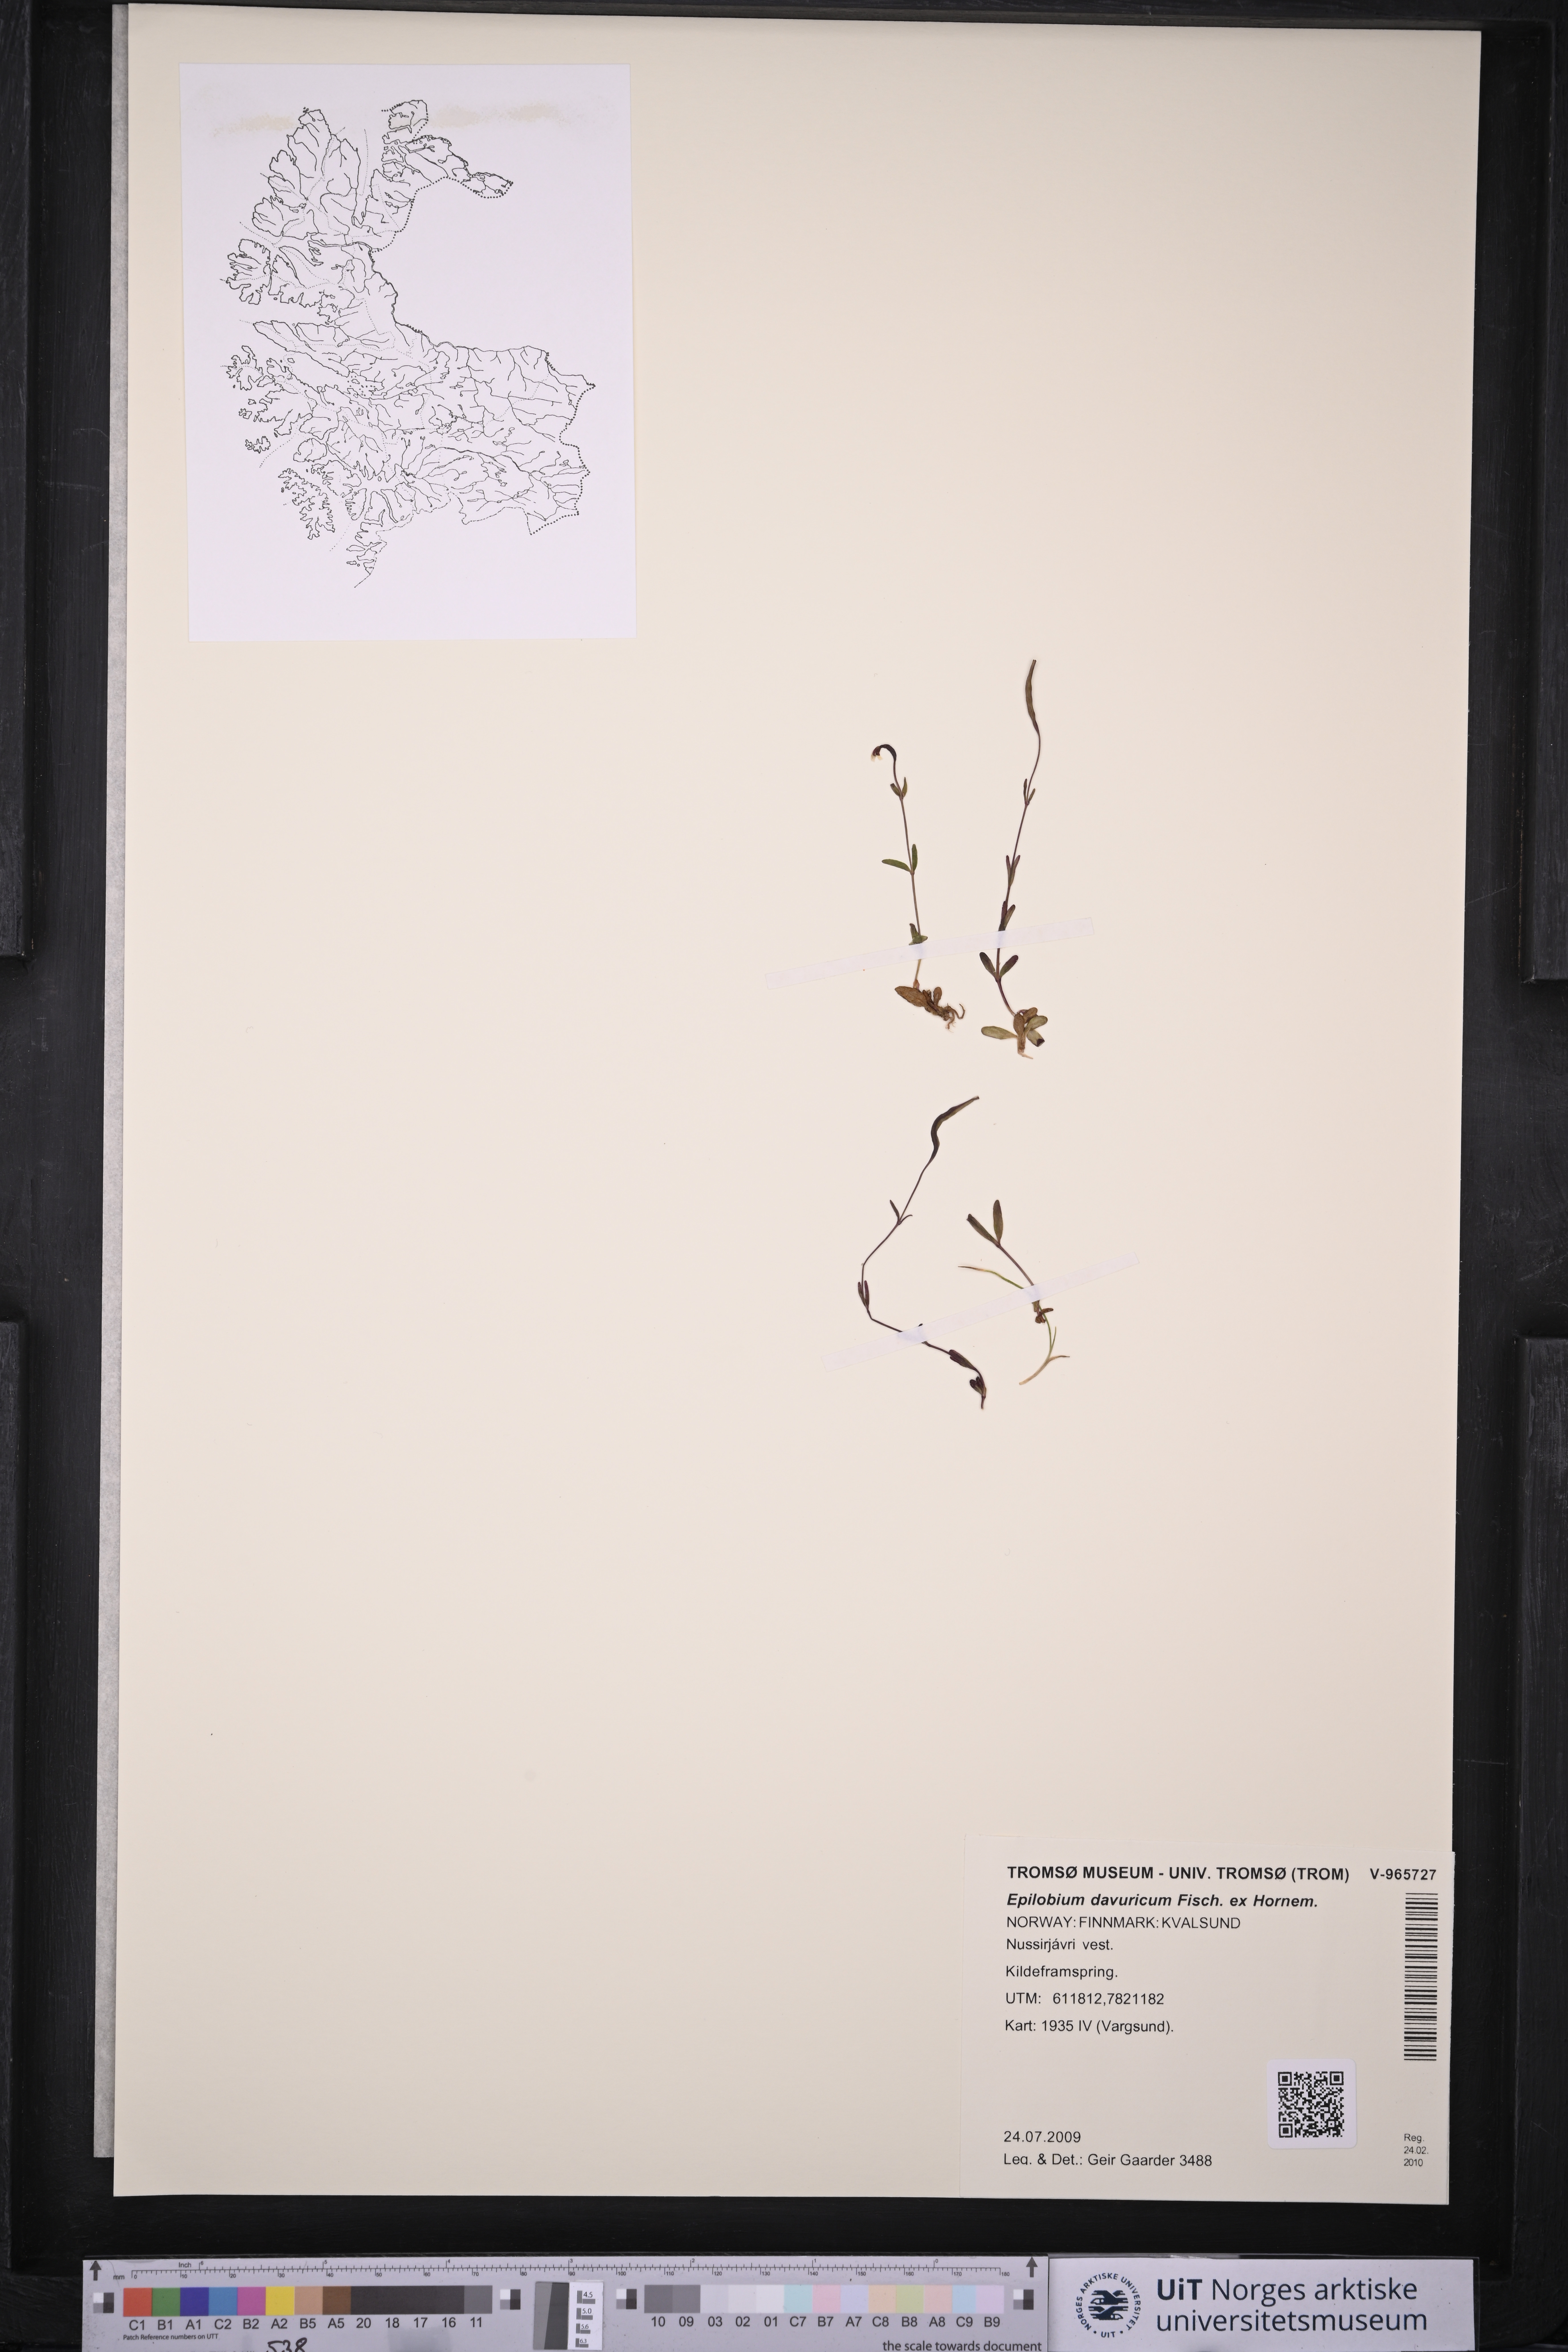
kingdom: Plantae
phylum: Tracheophyta
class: Magnoliopsida
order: Myrtales
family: Onagraceae
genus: Epilobium
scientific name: Epilobium davuricum
